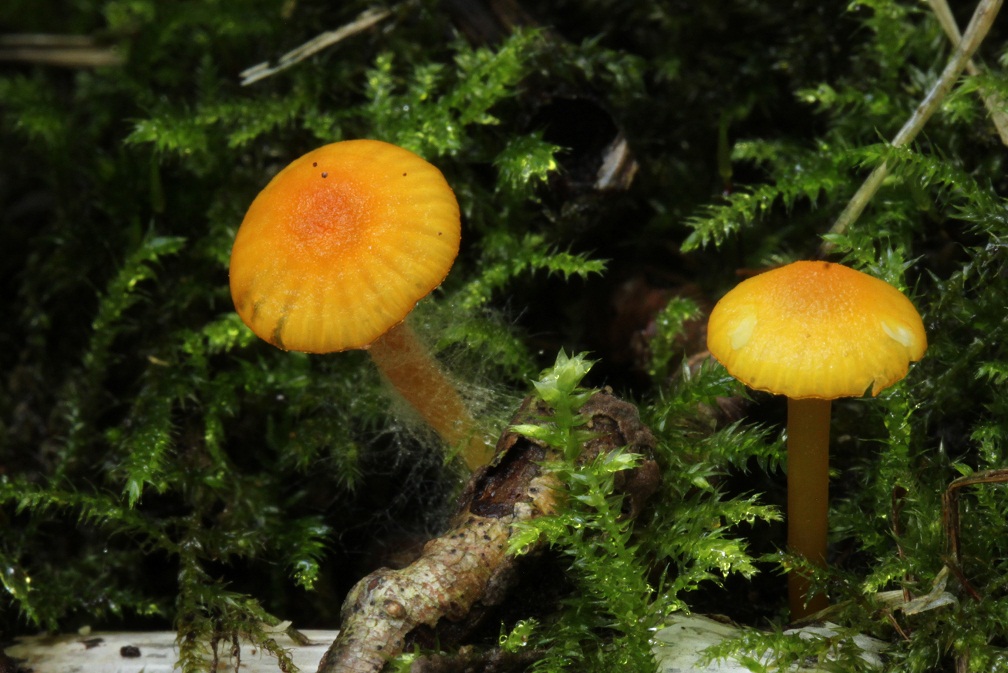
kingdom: Fungi
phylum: Basidiomycota
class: Agaricomycetes
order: Agaricales
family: Hygrophoraceae
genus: Gloioxanthomyces
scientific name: Gloioxanthomyces vitellinus
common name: kromgul vokshat
